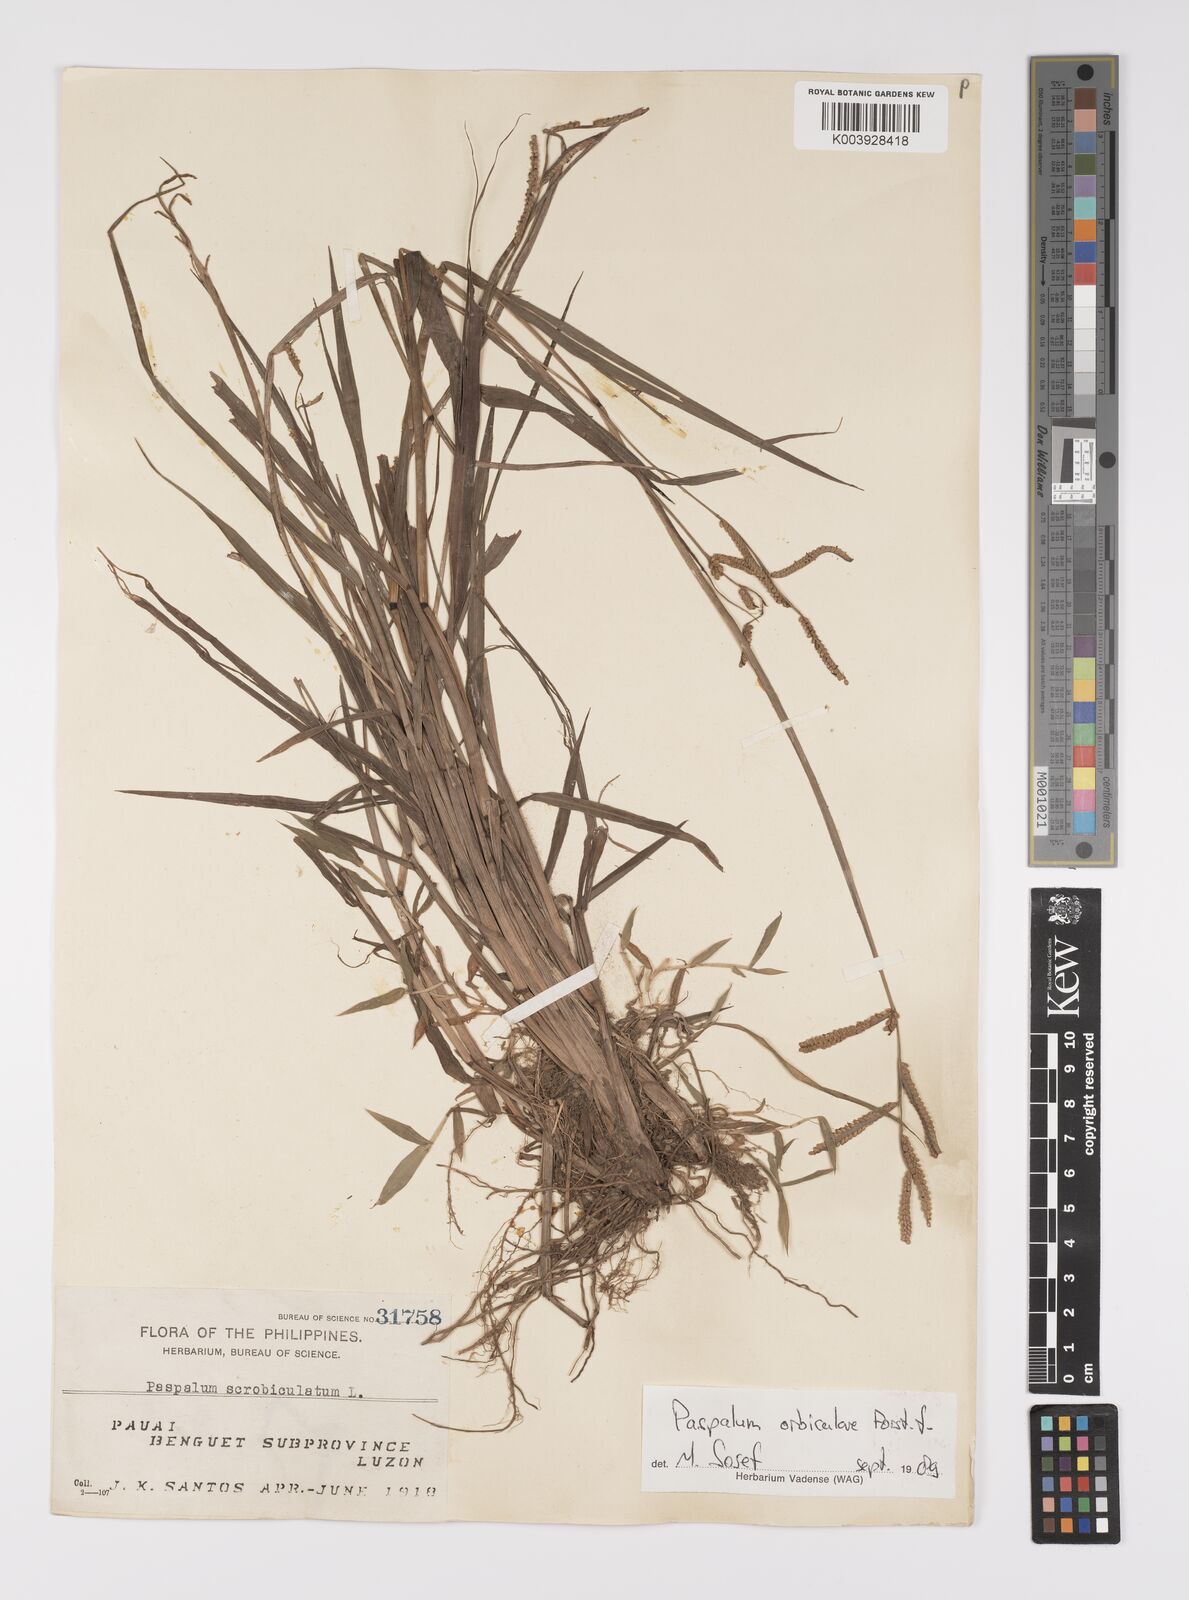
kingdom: Plantae
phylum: Tracheophyta
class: Liliopsida
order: Poales
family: Poaceae
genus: Paspalum
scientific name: Paspalum scrobiculatum
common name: Kodo millet
